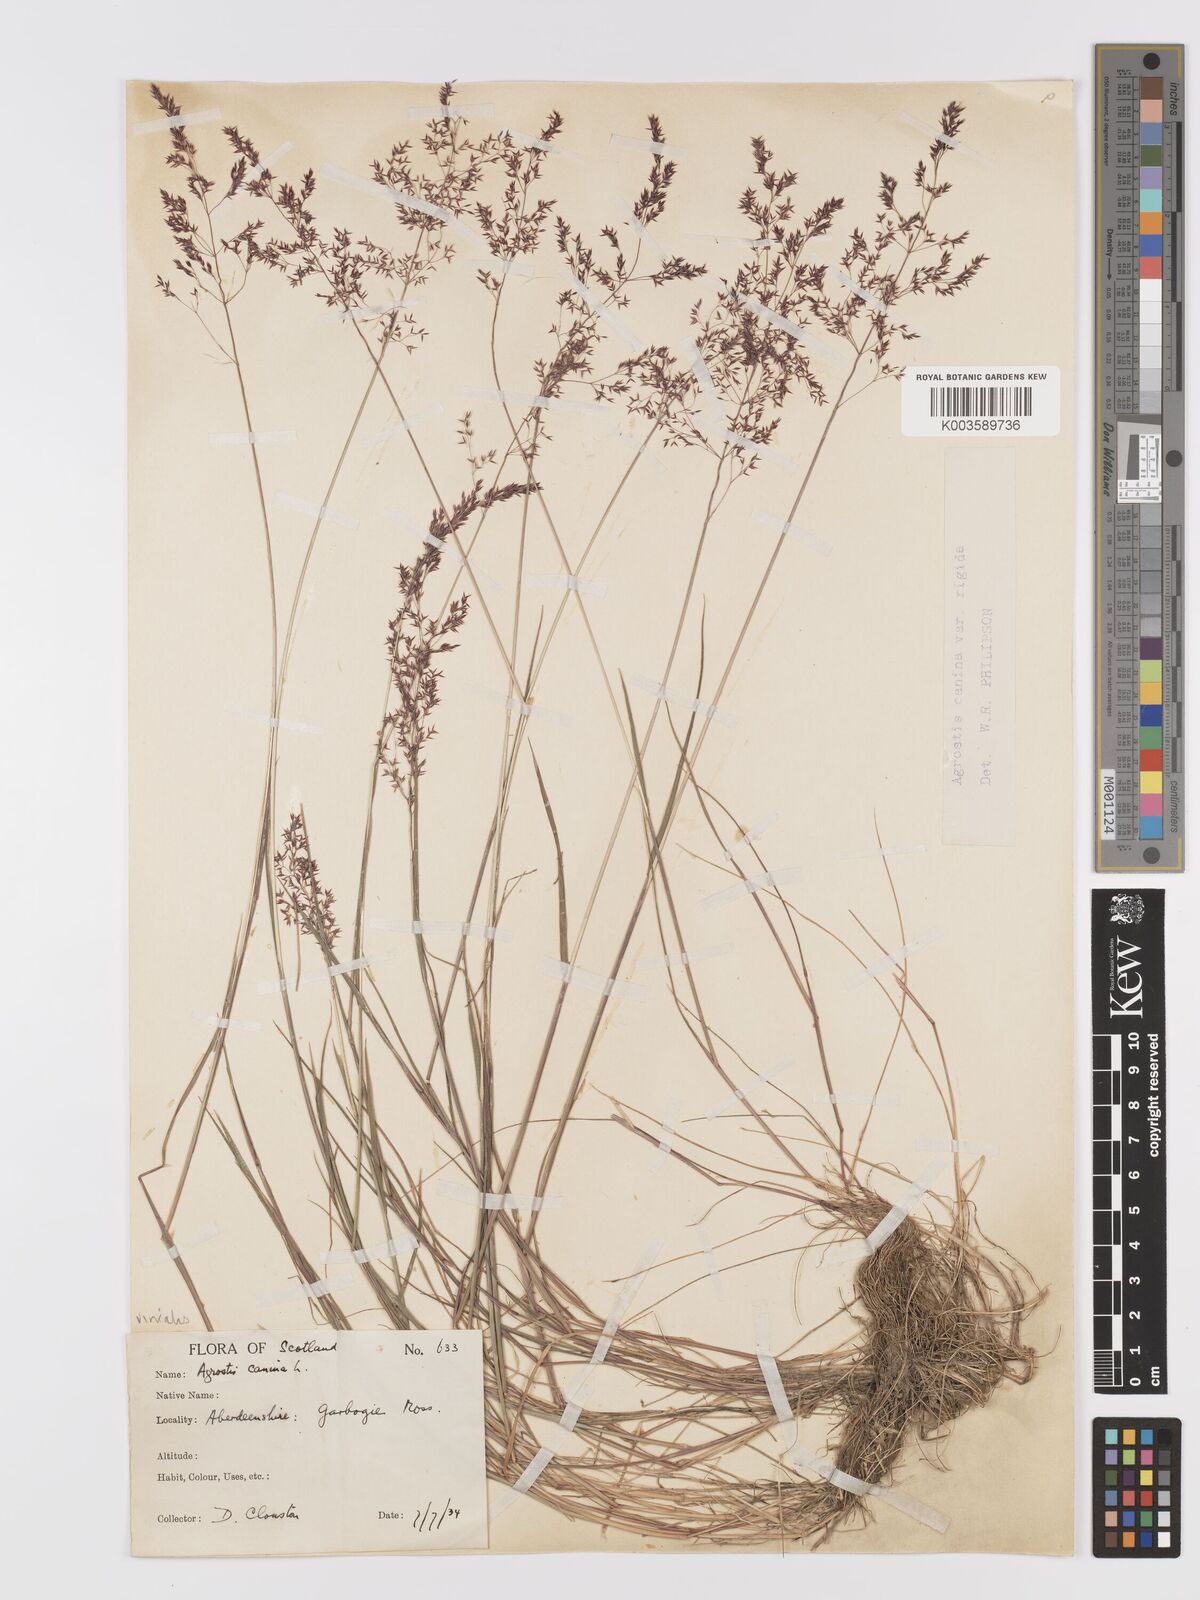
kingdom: Plantae
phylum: Tracheophyta
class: Liliopsida
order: Poales
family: Poaceae
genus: Agrostis
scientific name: Agrostis
